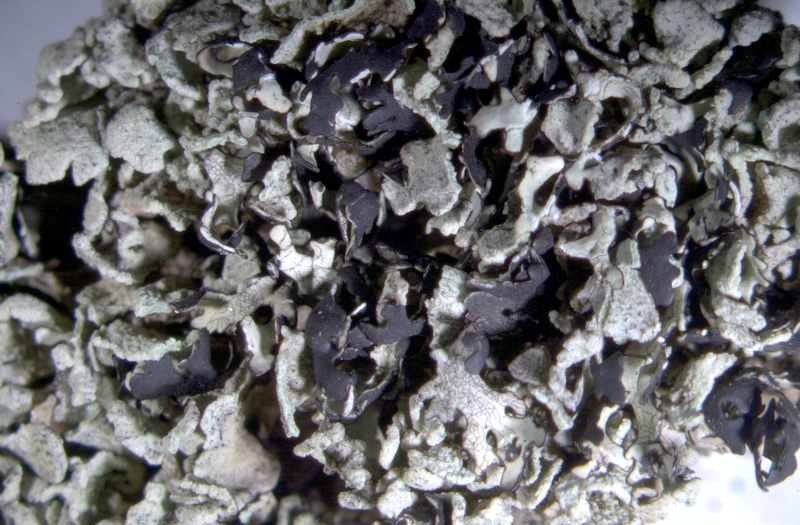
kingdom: Fungi
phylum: Ascomycota
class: Lecanoromycetes
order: Pertusariales
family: Icmadophilaceae
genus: Siphula
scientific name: Siphula flavovirens
